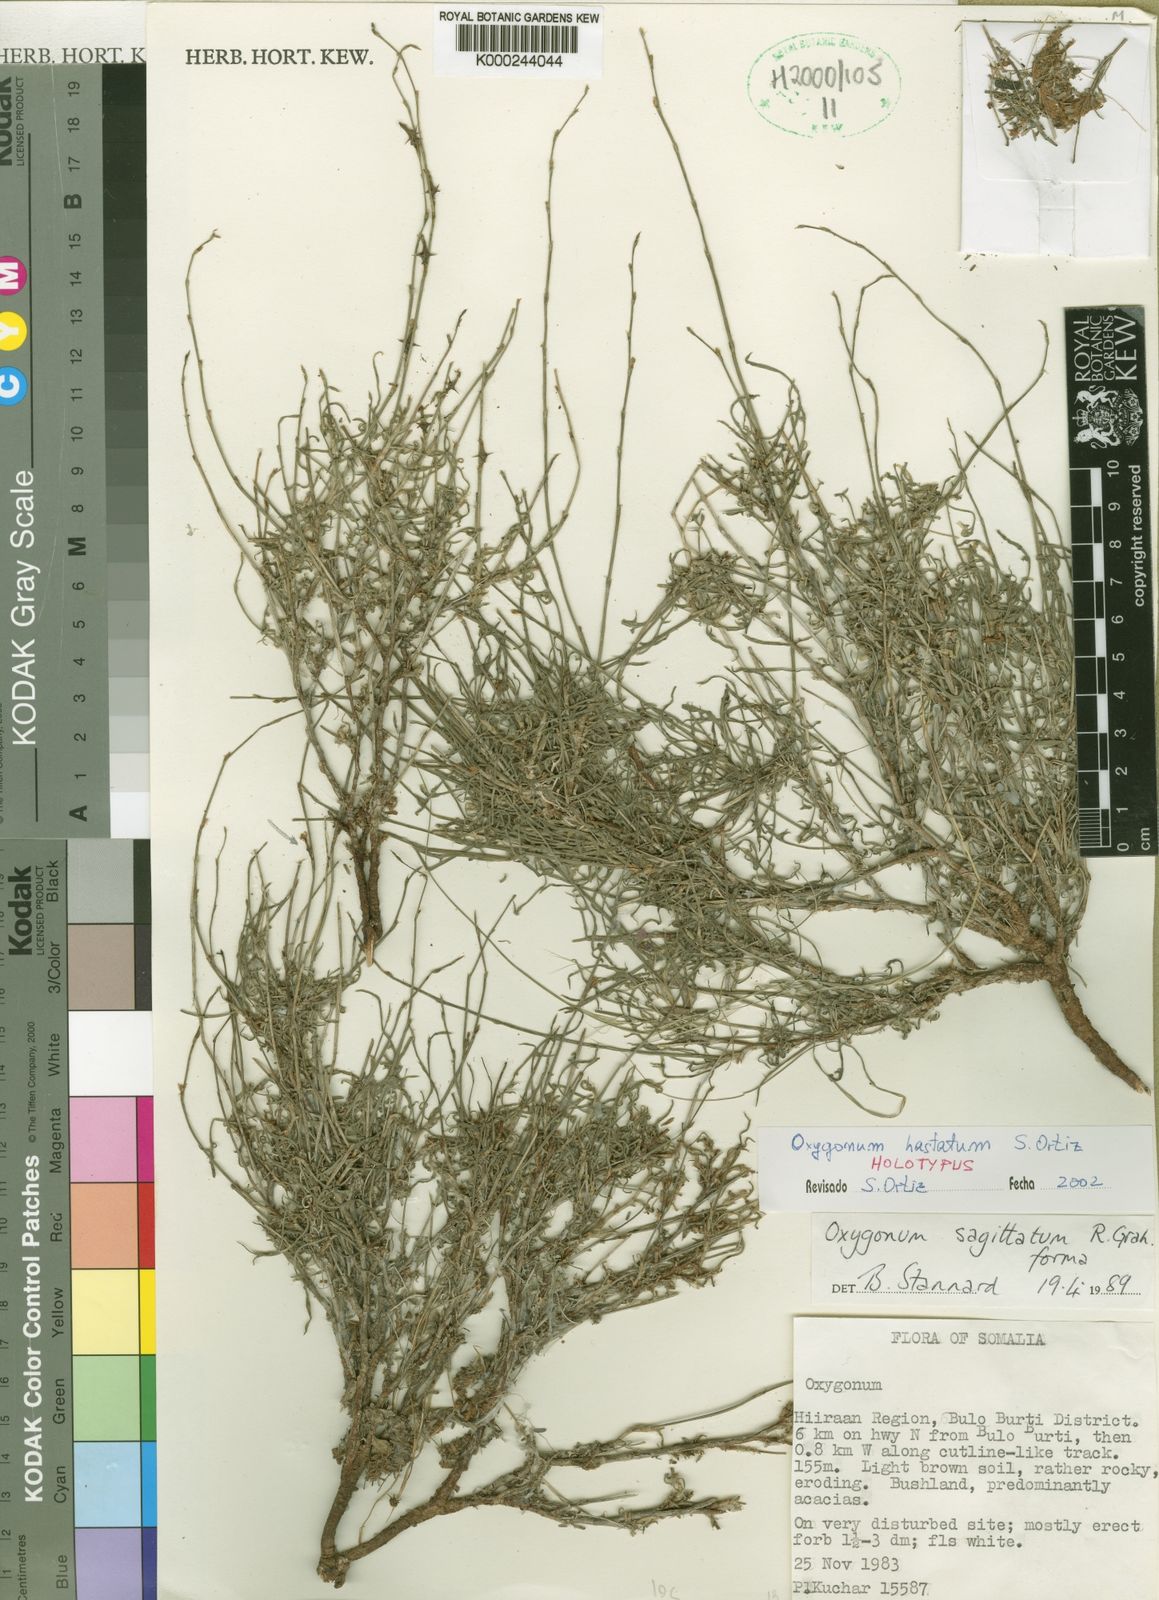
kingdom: Plantae
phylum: Tracheophyta
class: Magnoliopsida
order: Caryophyllales
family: Polygonaceae
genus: Oxygonum
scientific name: Oxygonum hastatum
